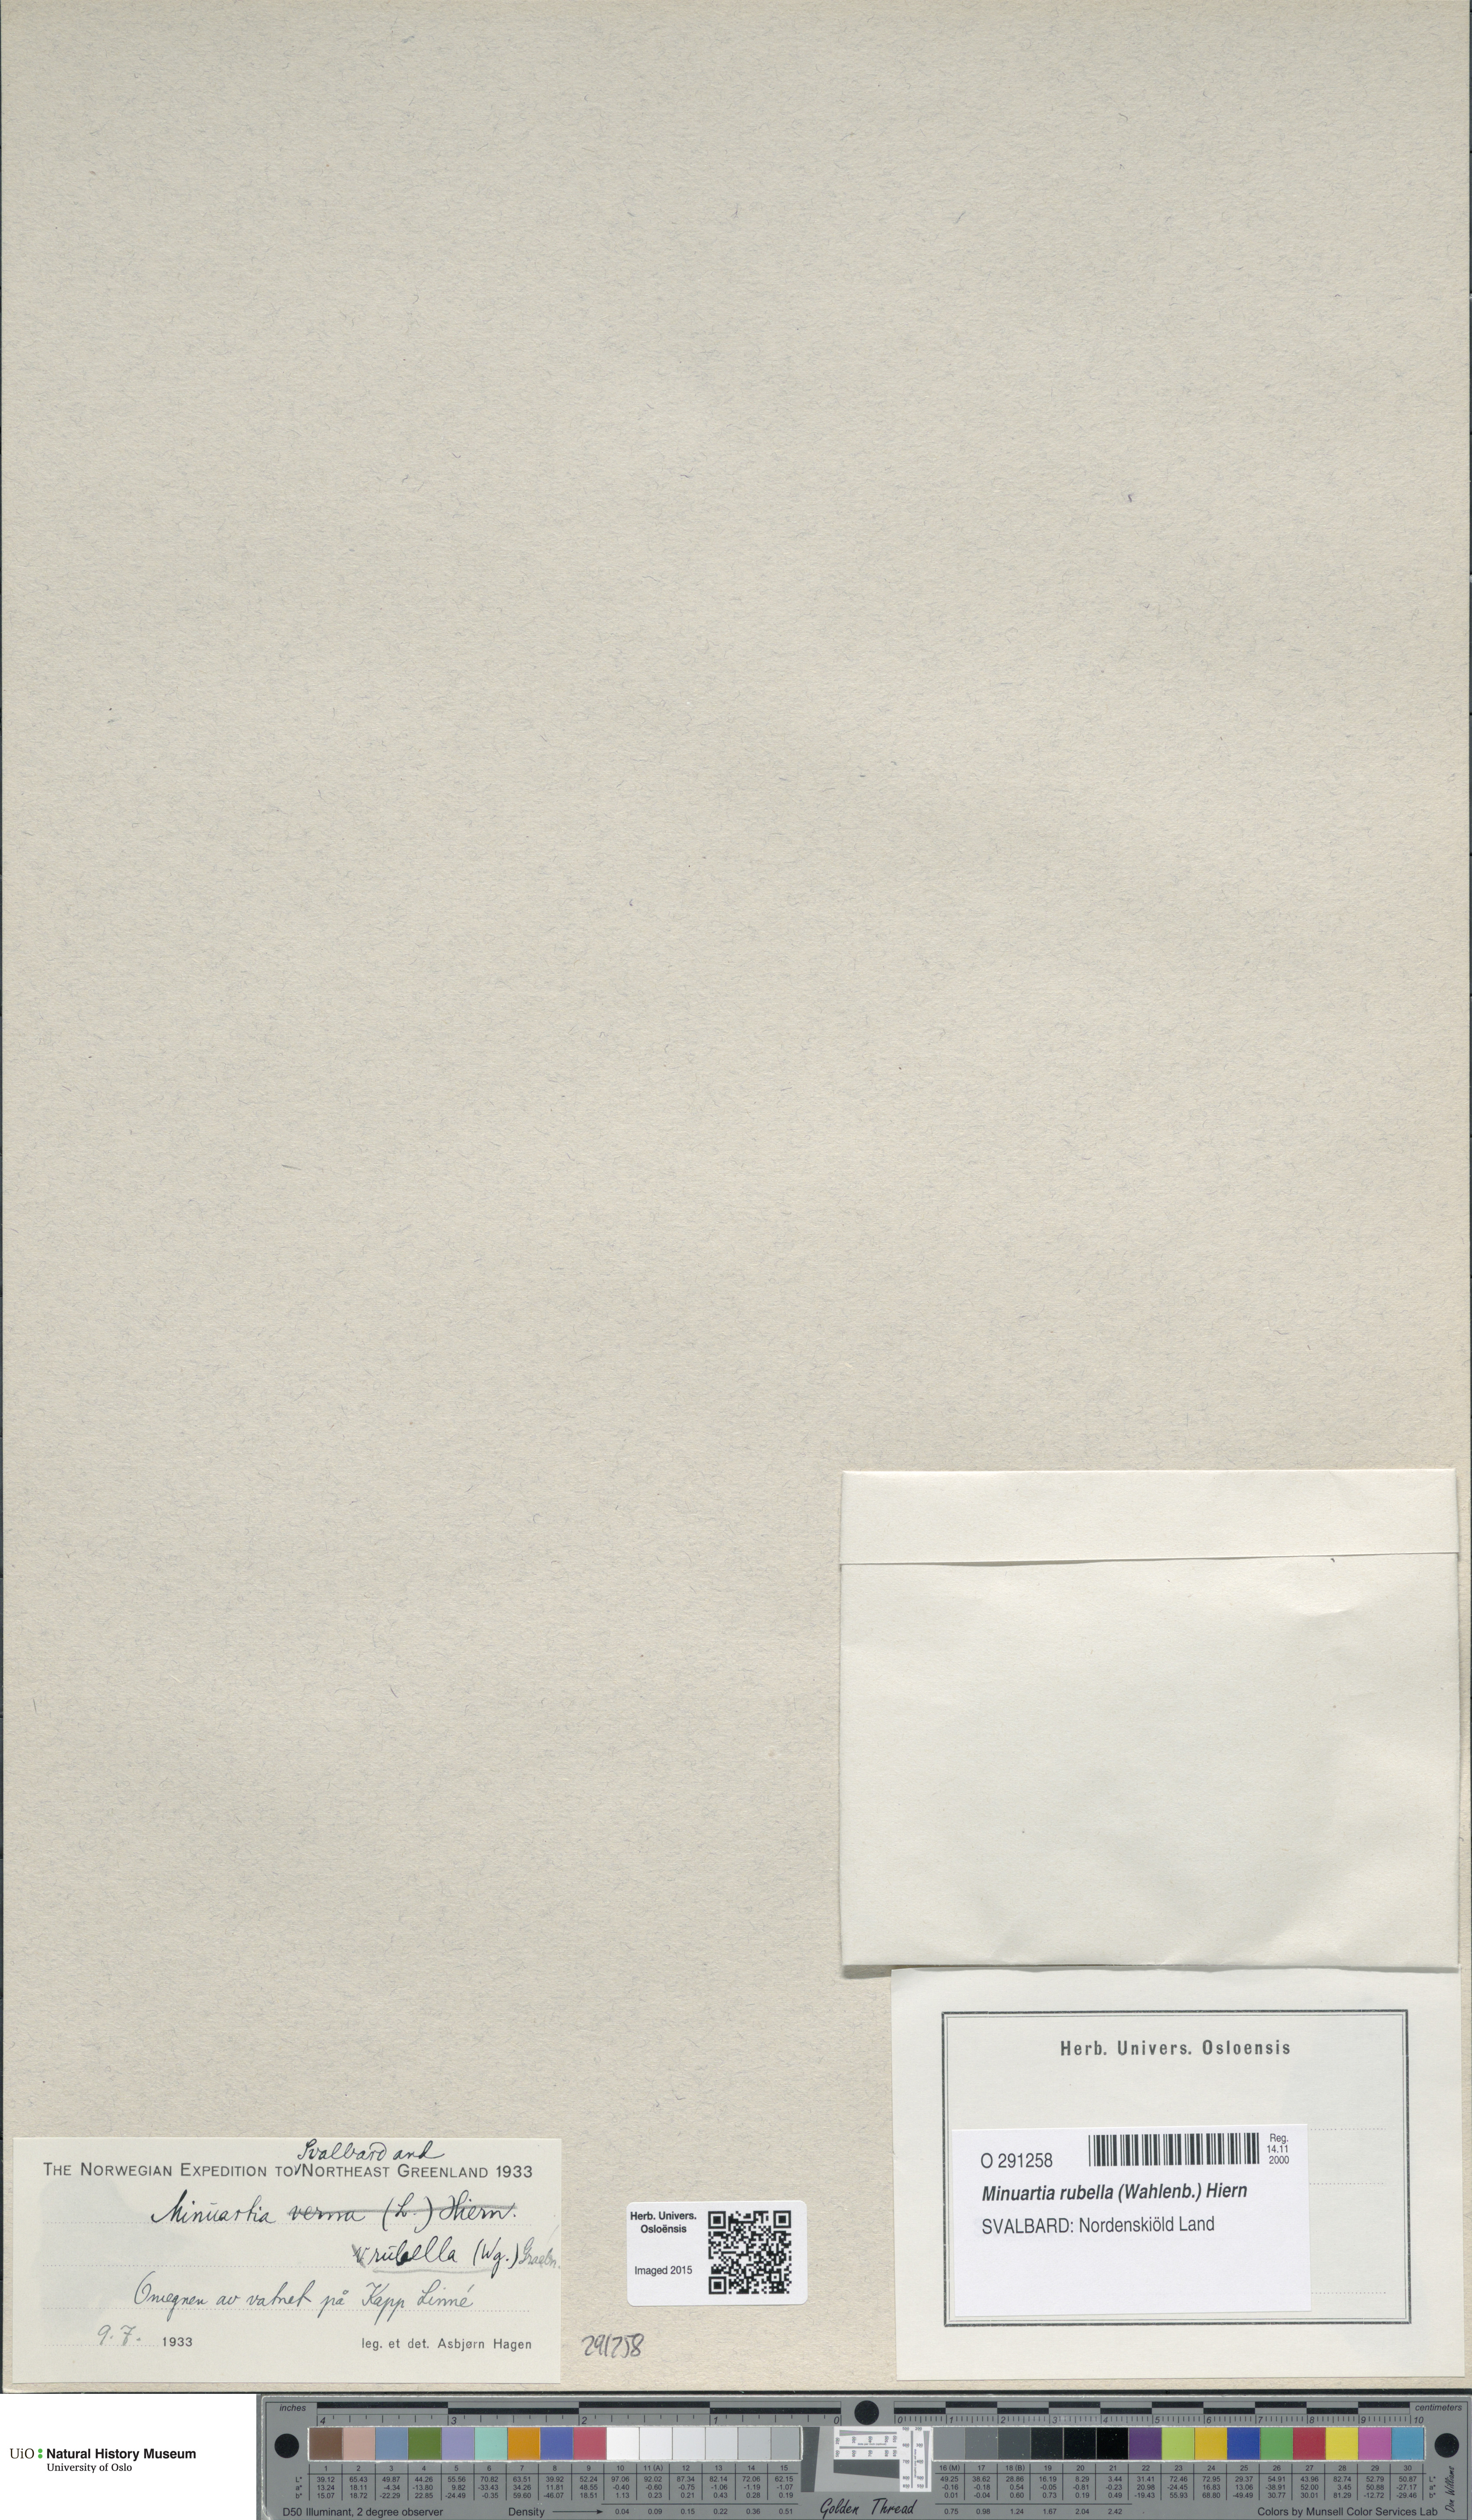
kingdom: Plantae
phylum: Tracheophyta
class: Magnoliopsida
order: Caryophyllales
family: Caryophyllaceae
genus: Sabulina
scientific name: Sabulina rubella
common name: Beautiful sandwort
